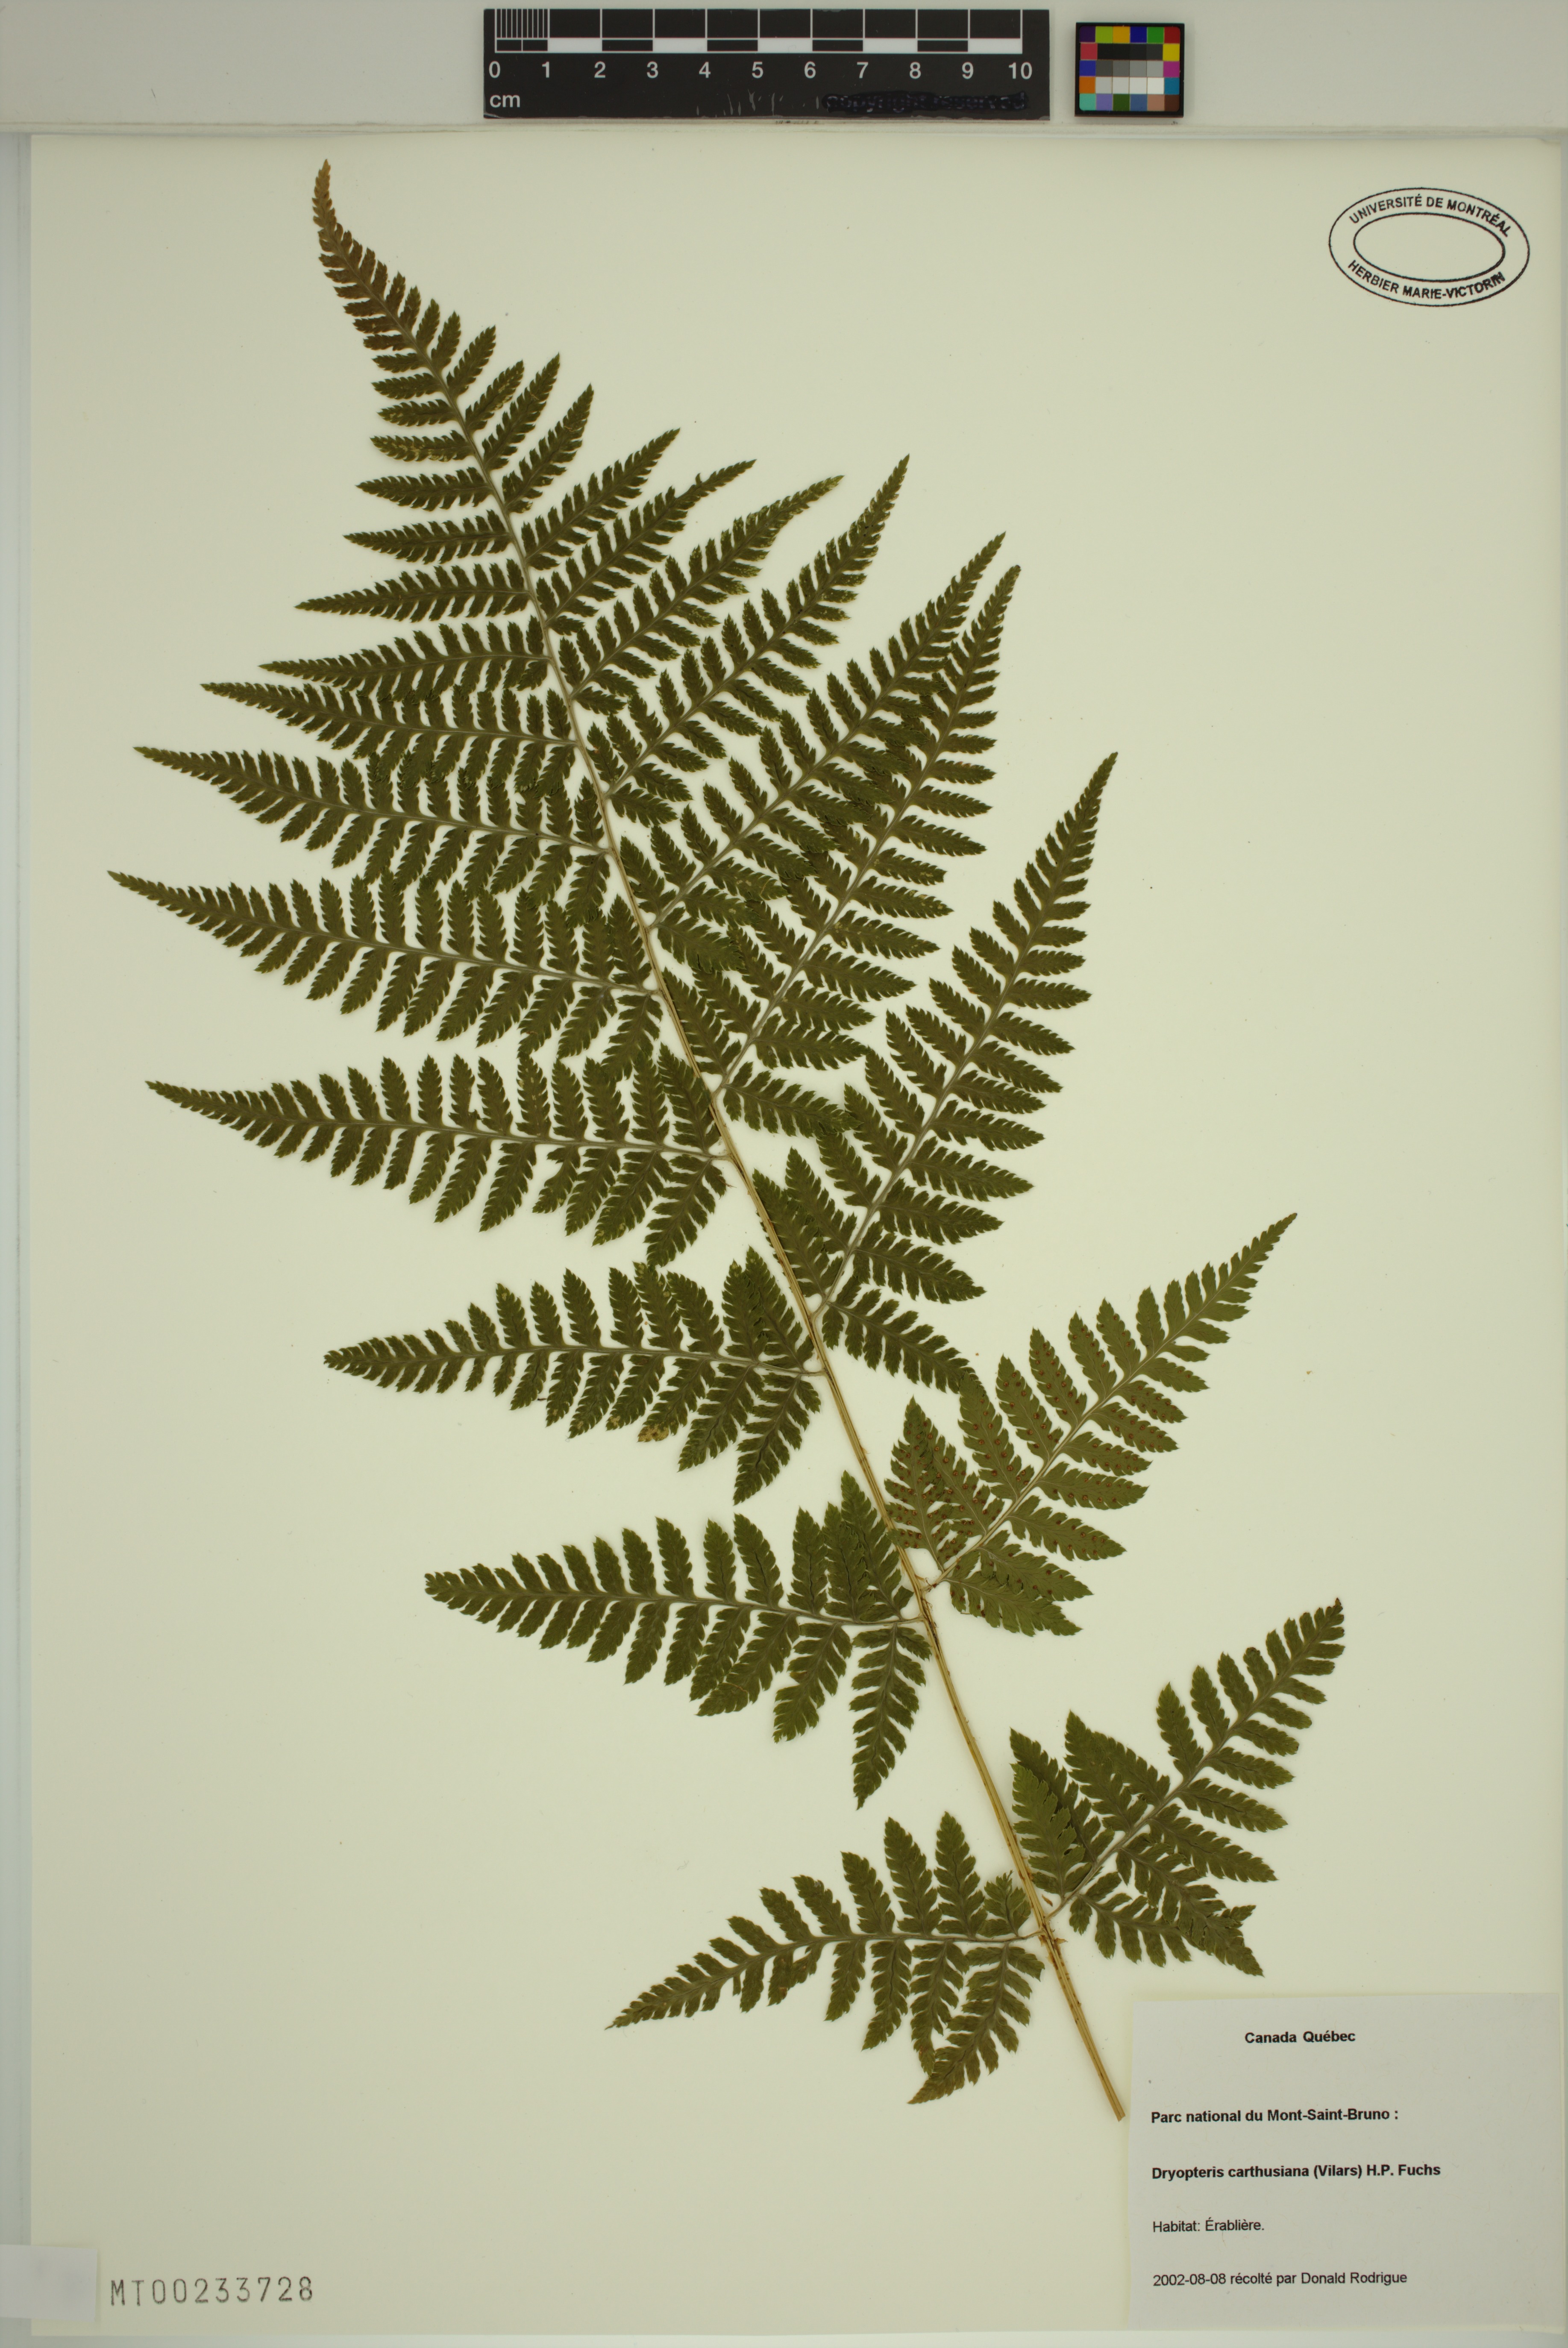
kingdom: Plantae
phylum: Tracheophyta
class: Polypodiopsida
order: Polypodiales
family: Dryopteridaceae
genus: Dryopteris
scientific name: Dryopteris carthusiana
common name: Narrow buckler-fern
